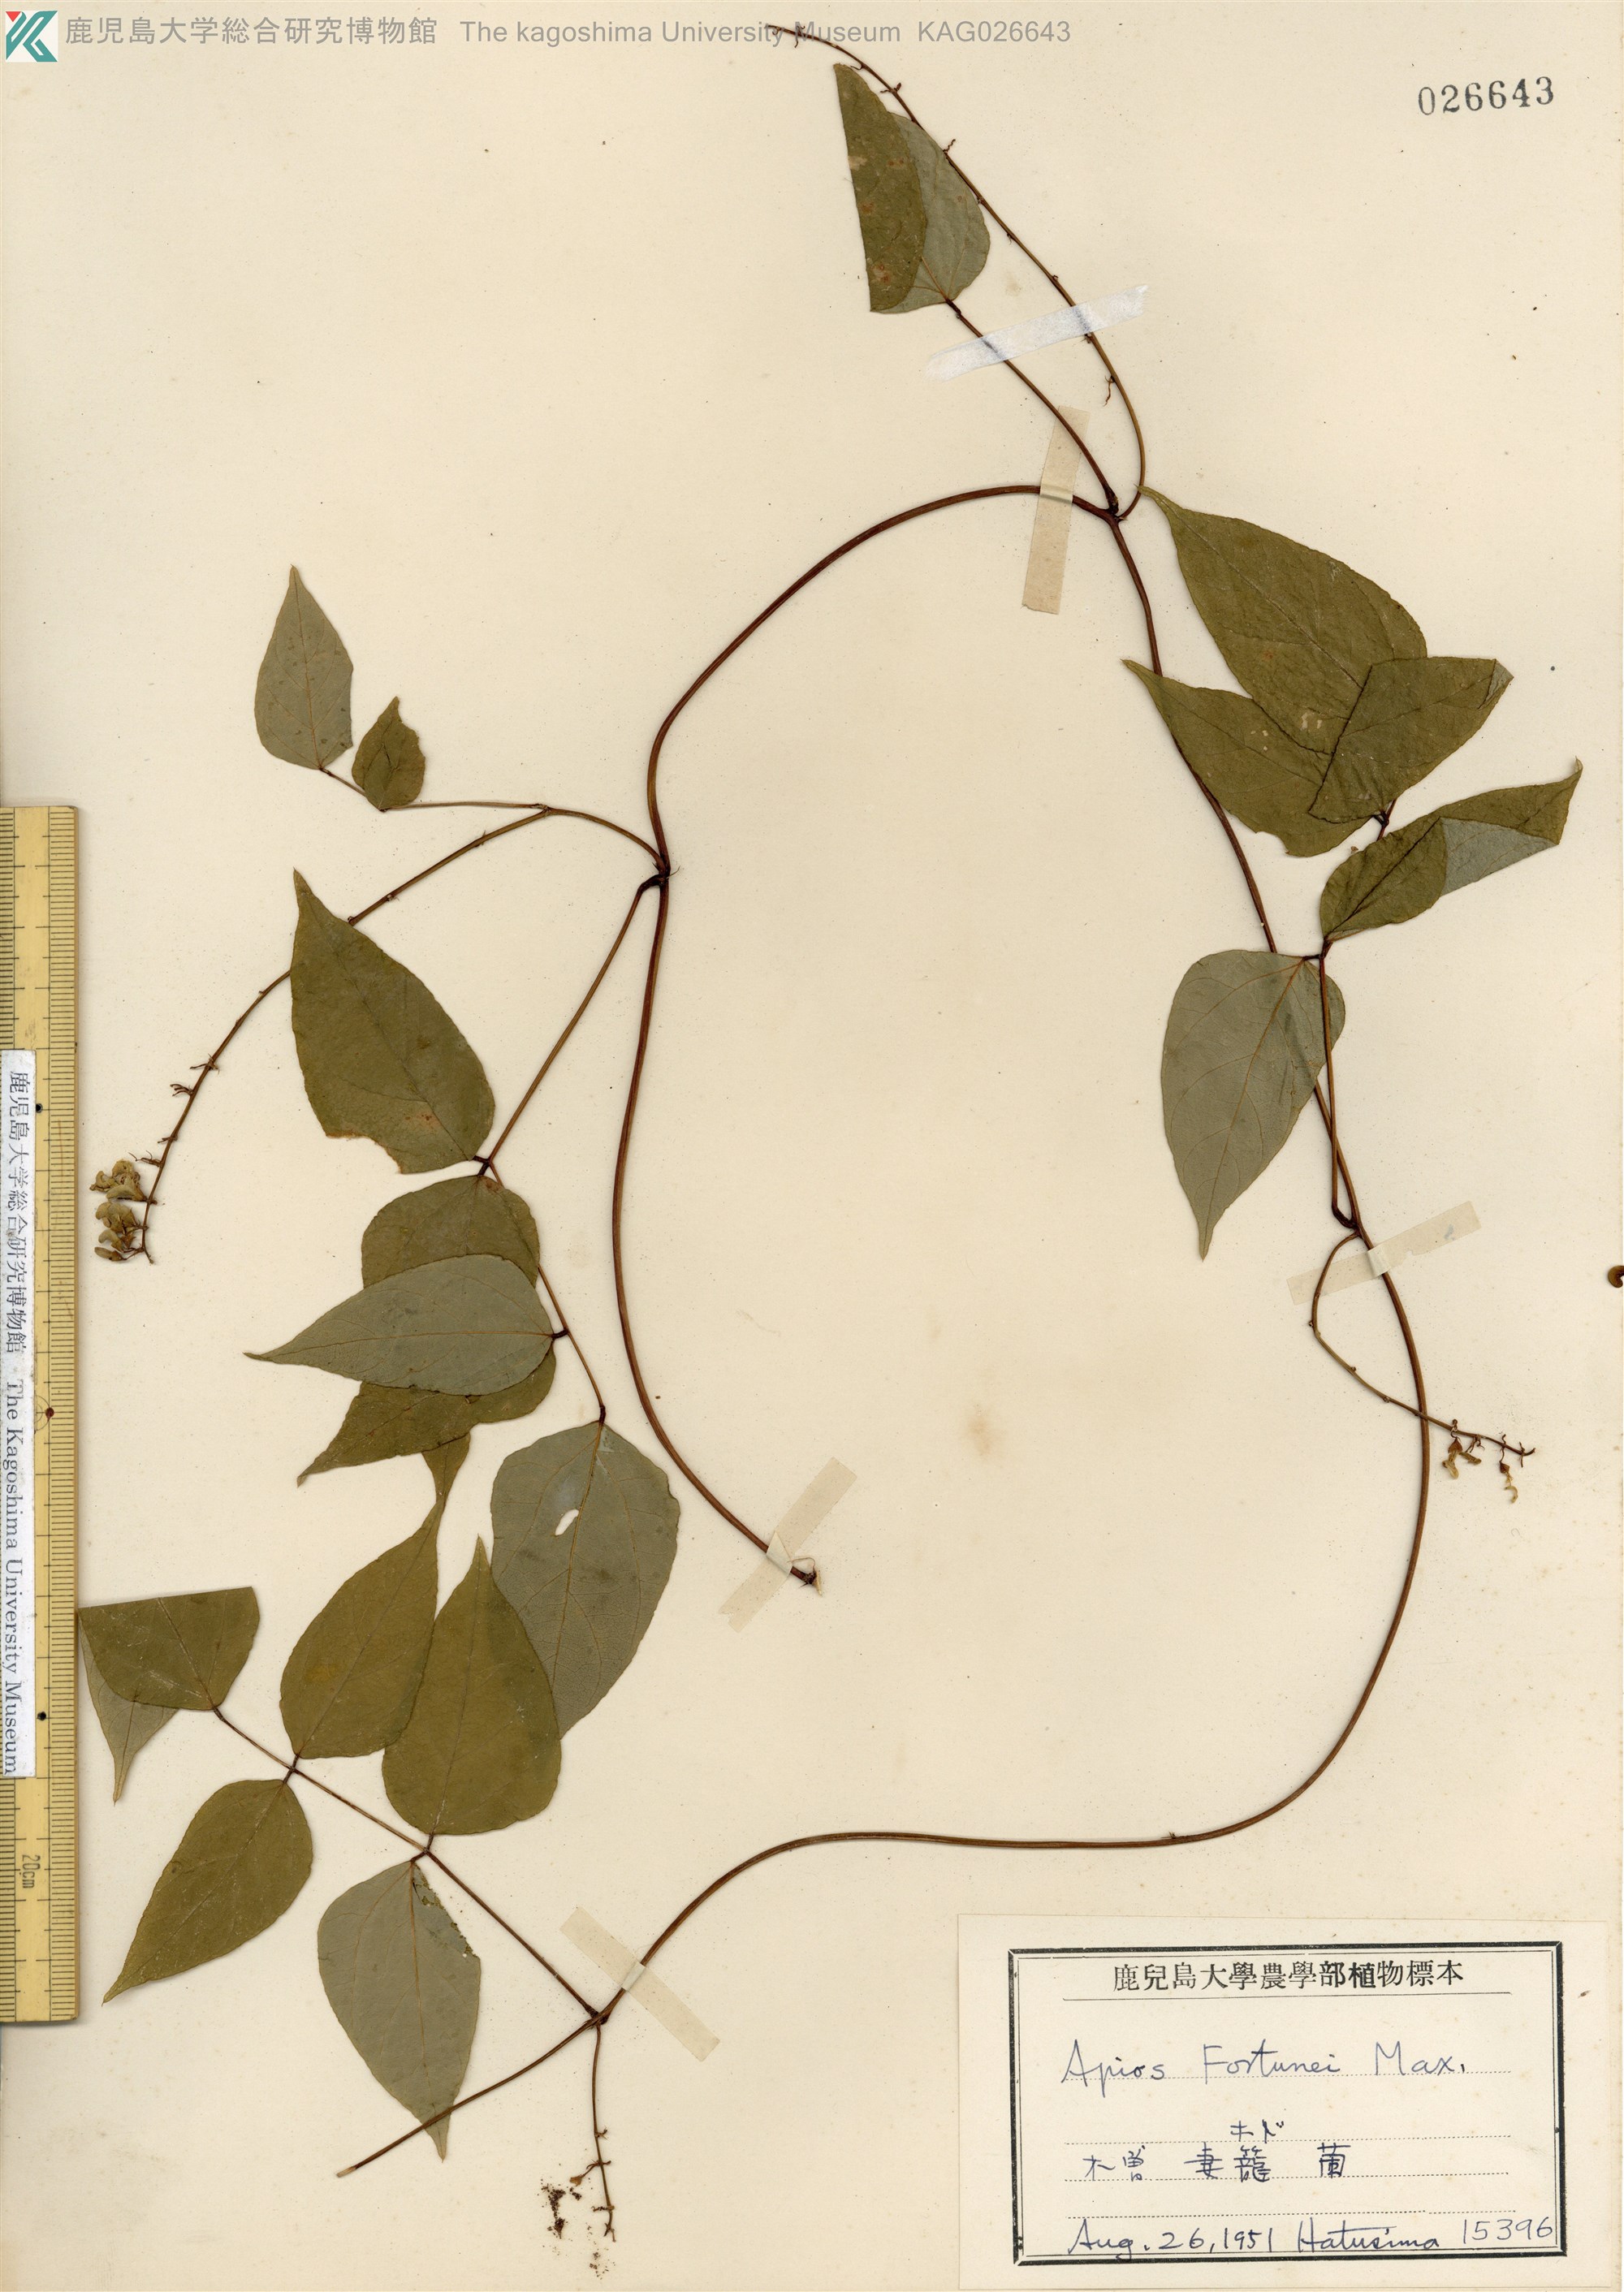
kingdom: Plantae
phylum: Tracheophyta
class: Magnoliopsida
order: Fabales
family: Fabaceae
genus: Apios
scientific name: Apios fortunei
